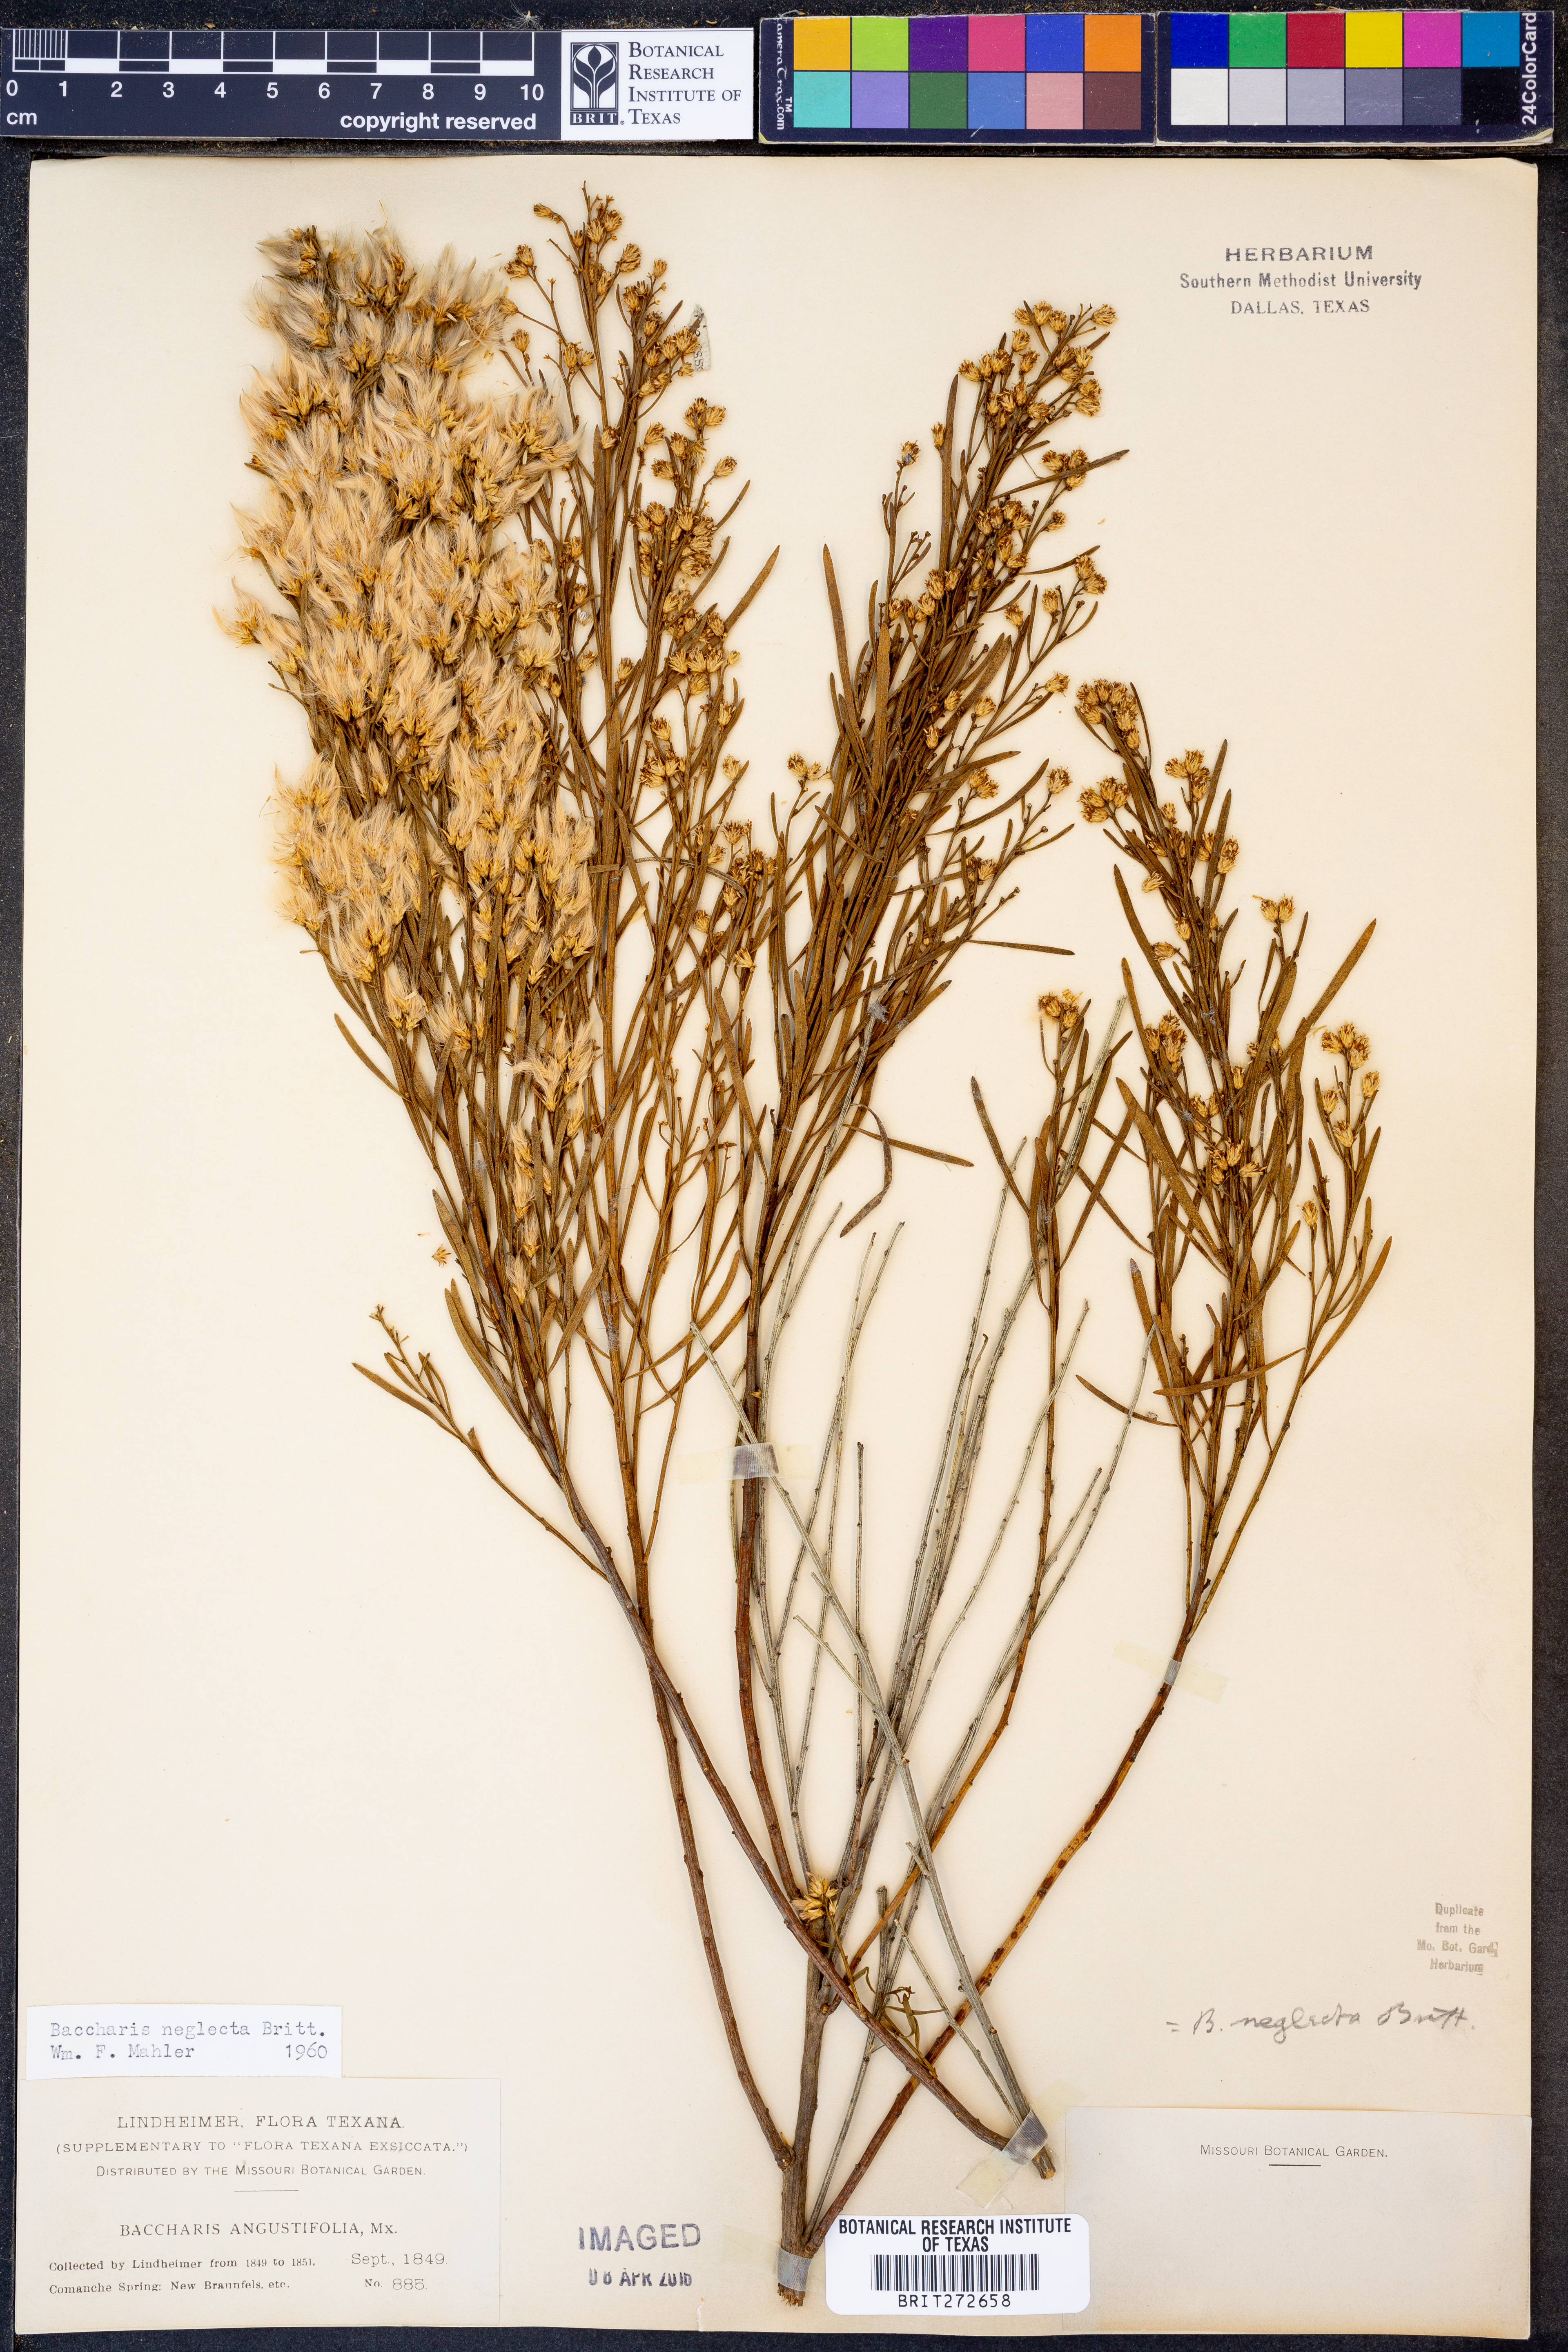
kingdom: Plantae
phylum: Tracheophyta
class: Magnoliopsida
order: Asterales
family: Asteraceae
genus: Baccharis
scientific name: Baccharis neglecta
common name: Roosevelt-weed
